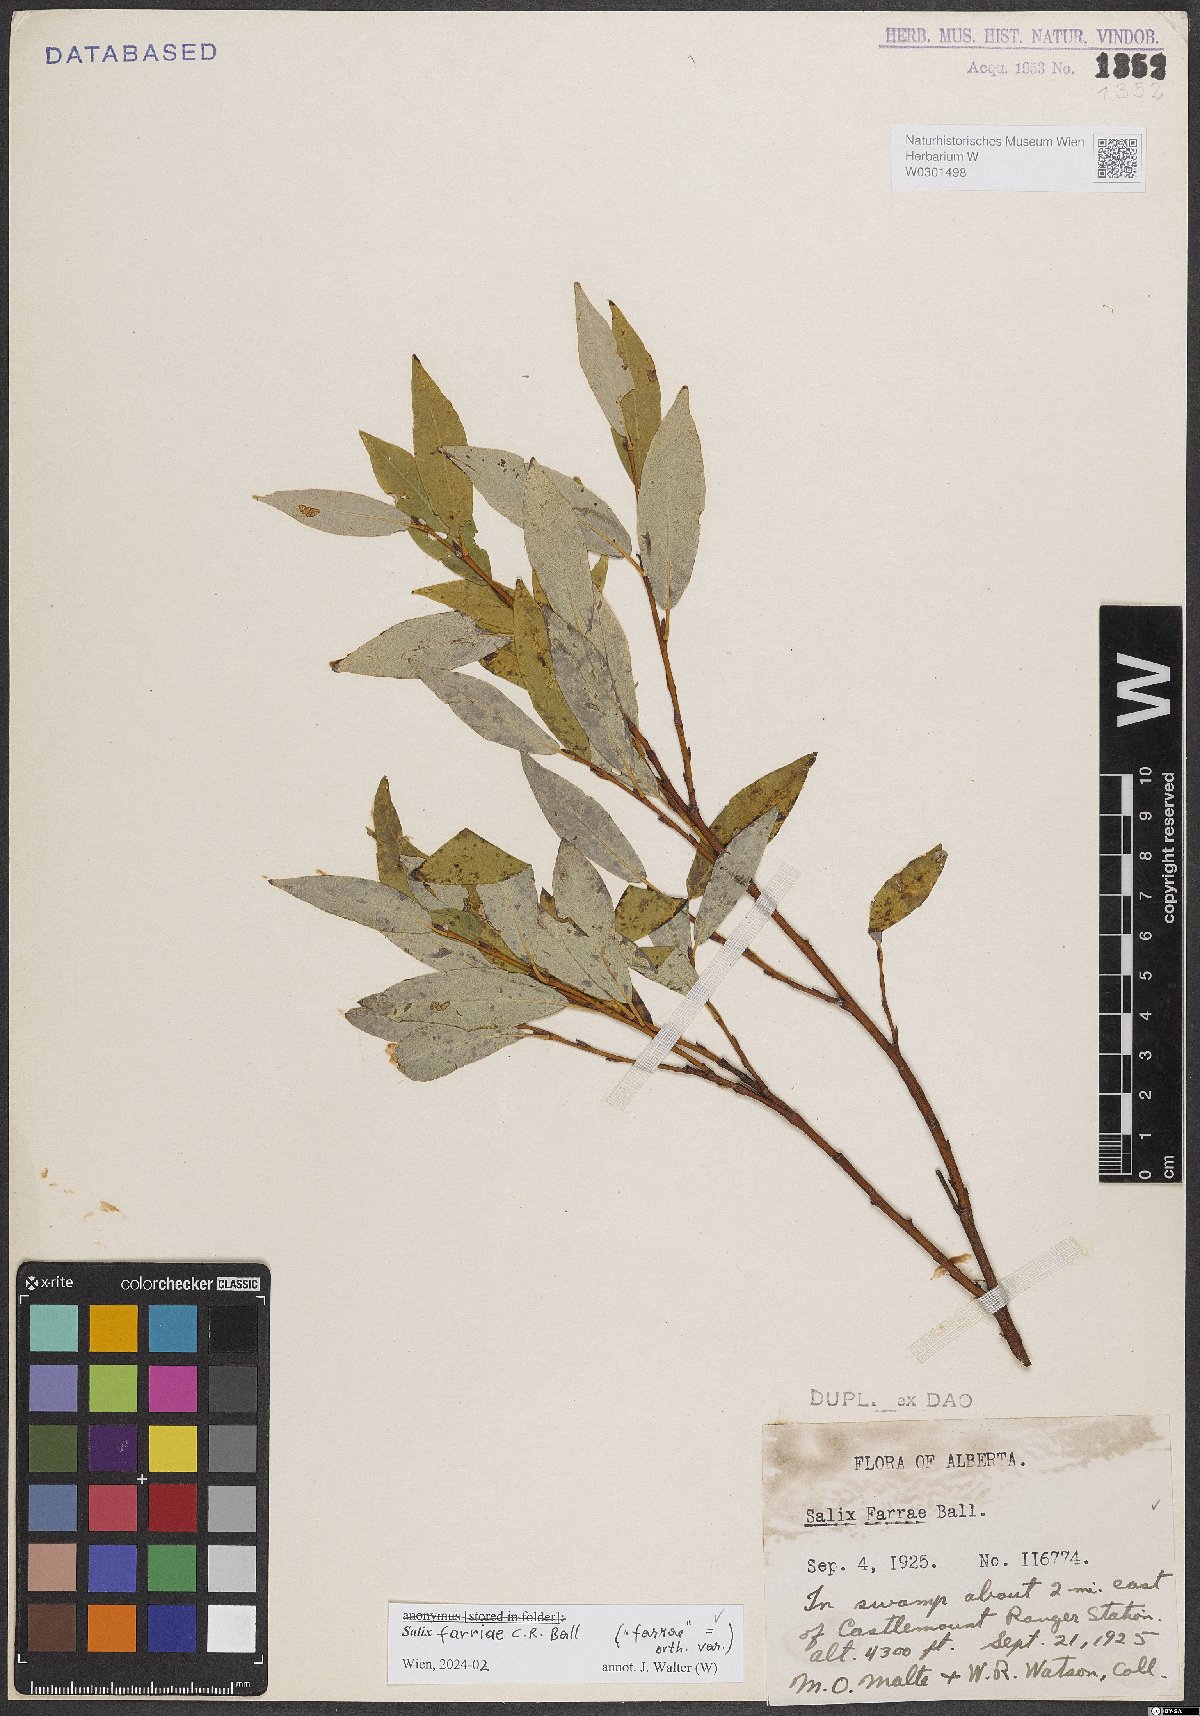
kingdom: Plantae
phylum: Tracheophyta
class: Magnoliopsida
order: Malpighiales
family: Salicaceae
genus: Salix
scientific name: Salix farriae
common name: Farr's willow
